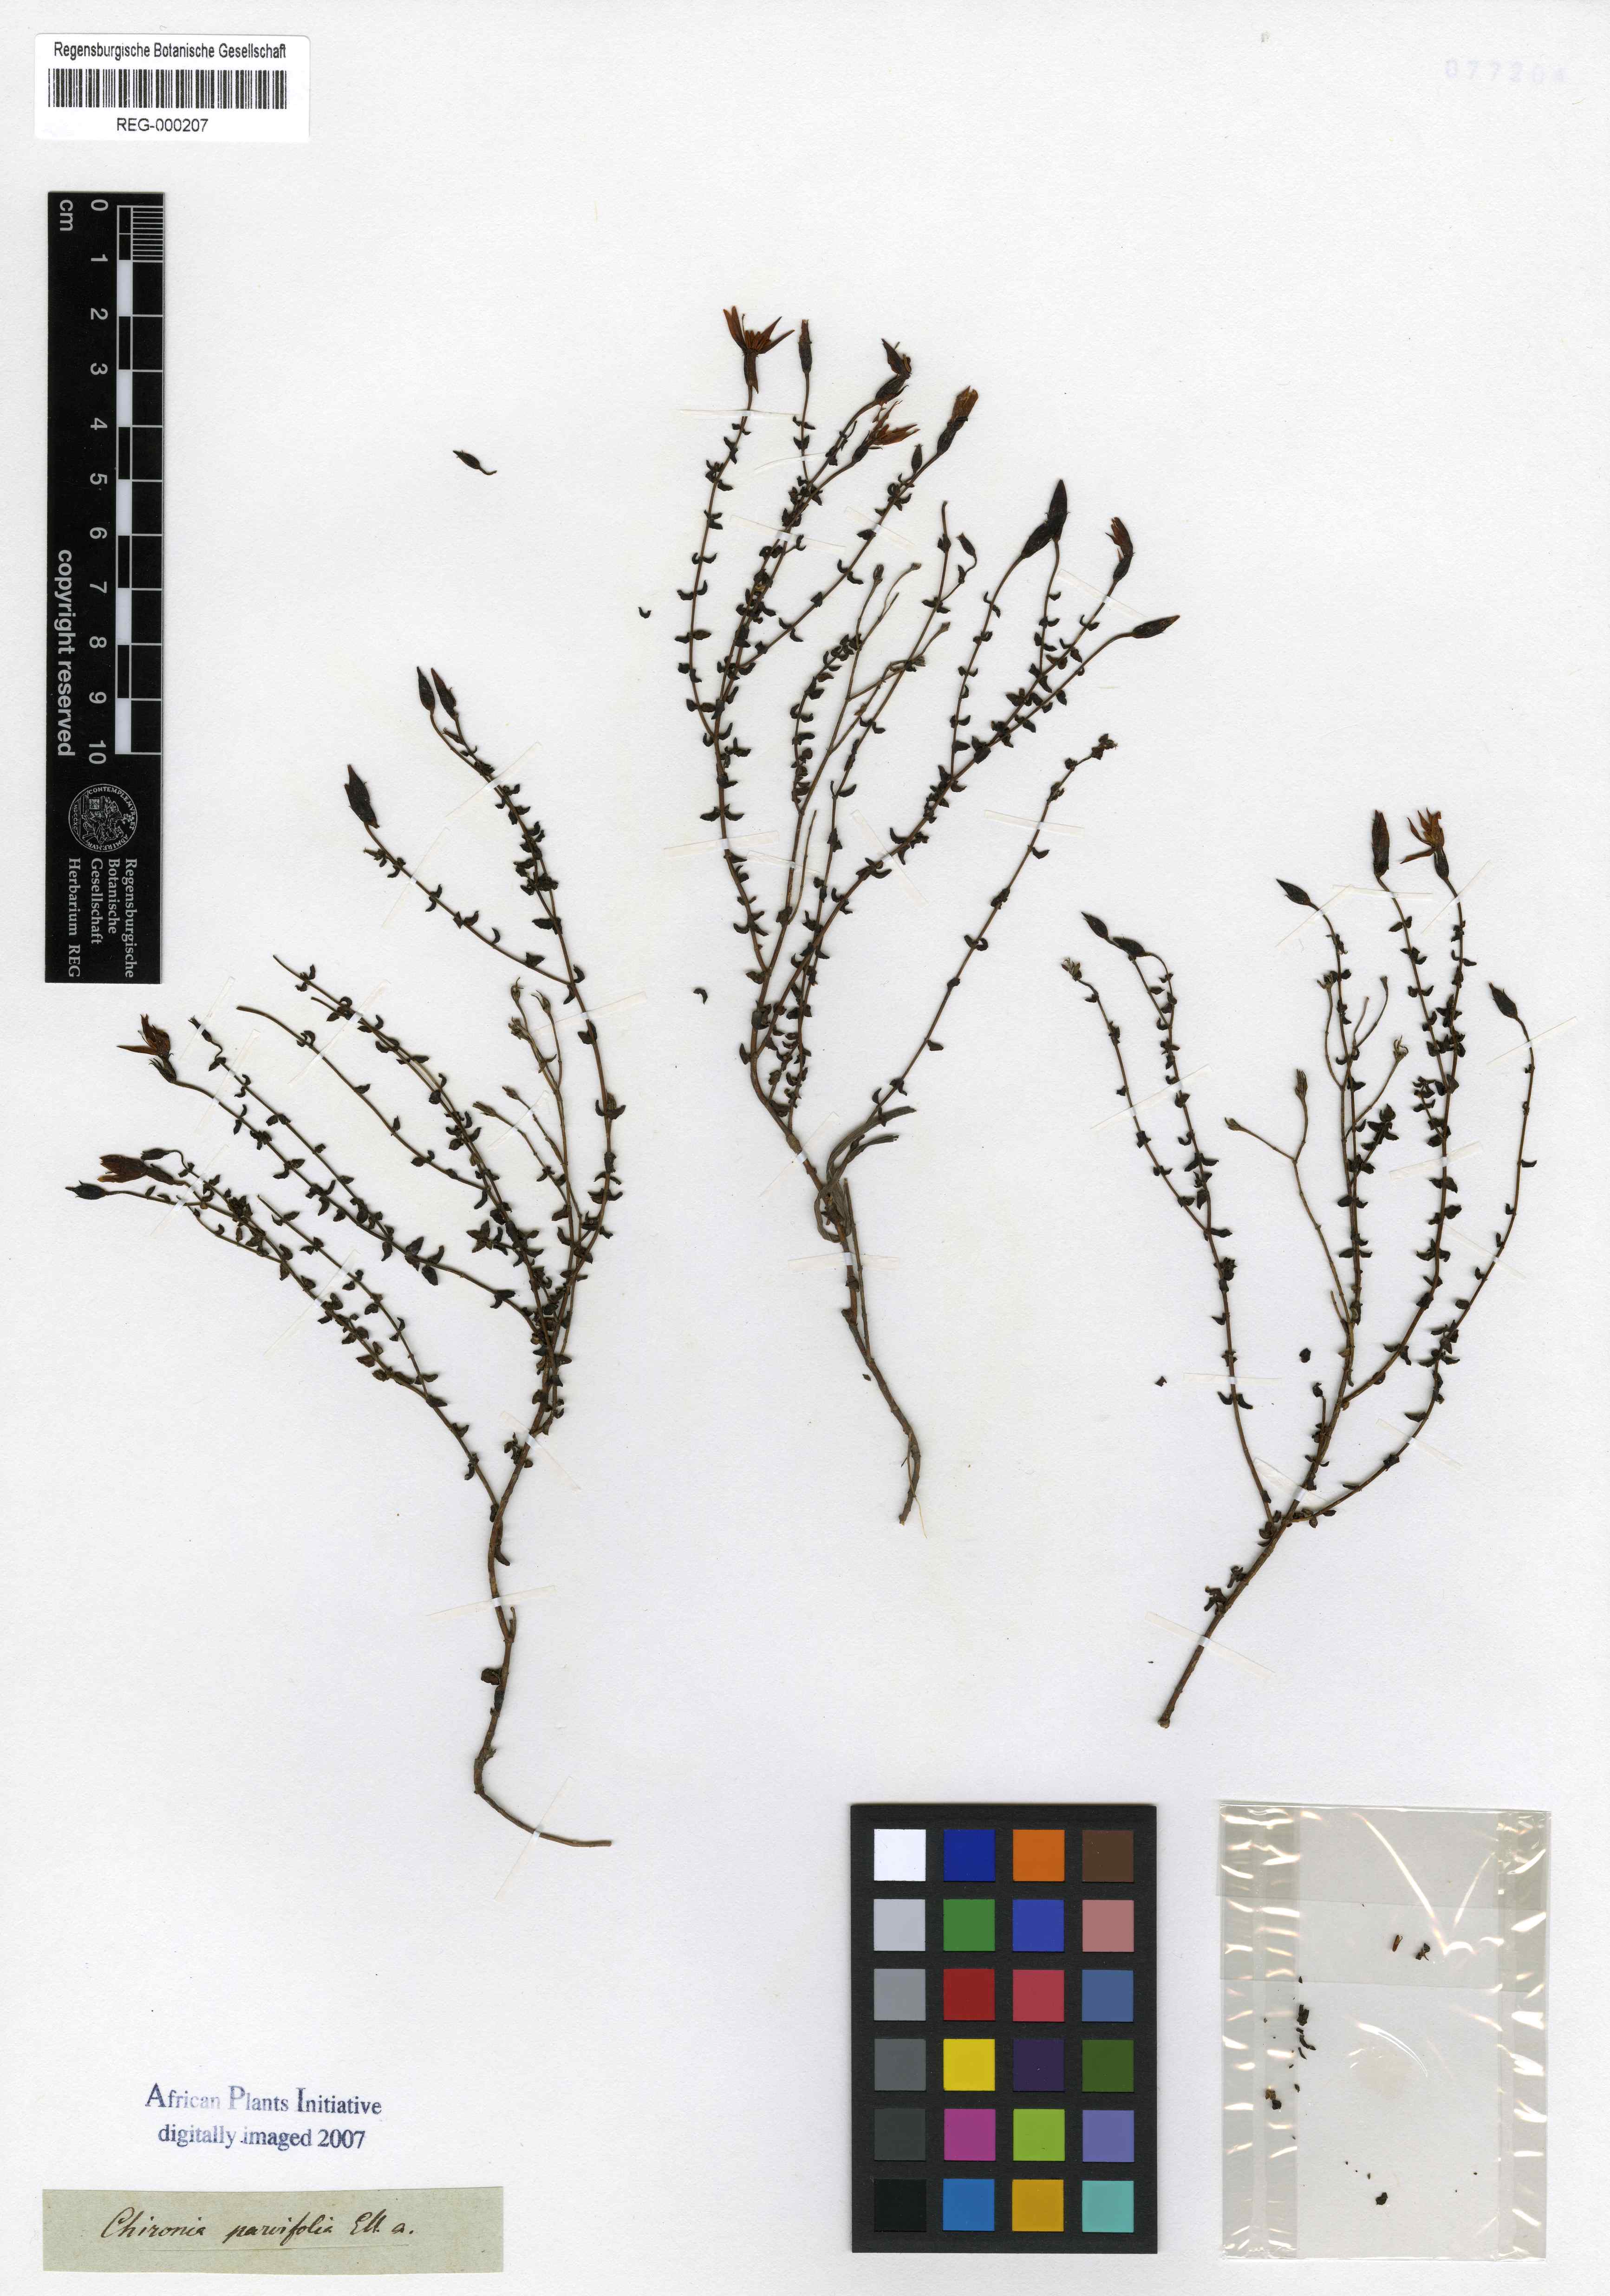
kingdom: Plantae
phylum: Tracheophyta
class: Magnoliopsida
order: Gentianales
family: Gentianaceae
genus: Chironia
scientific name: Chironia serpyllifolia
